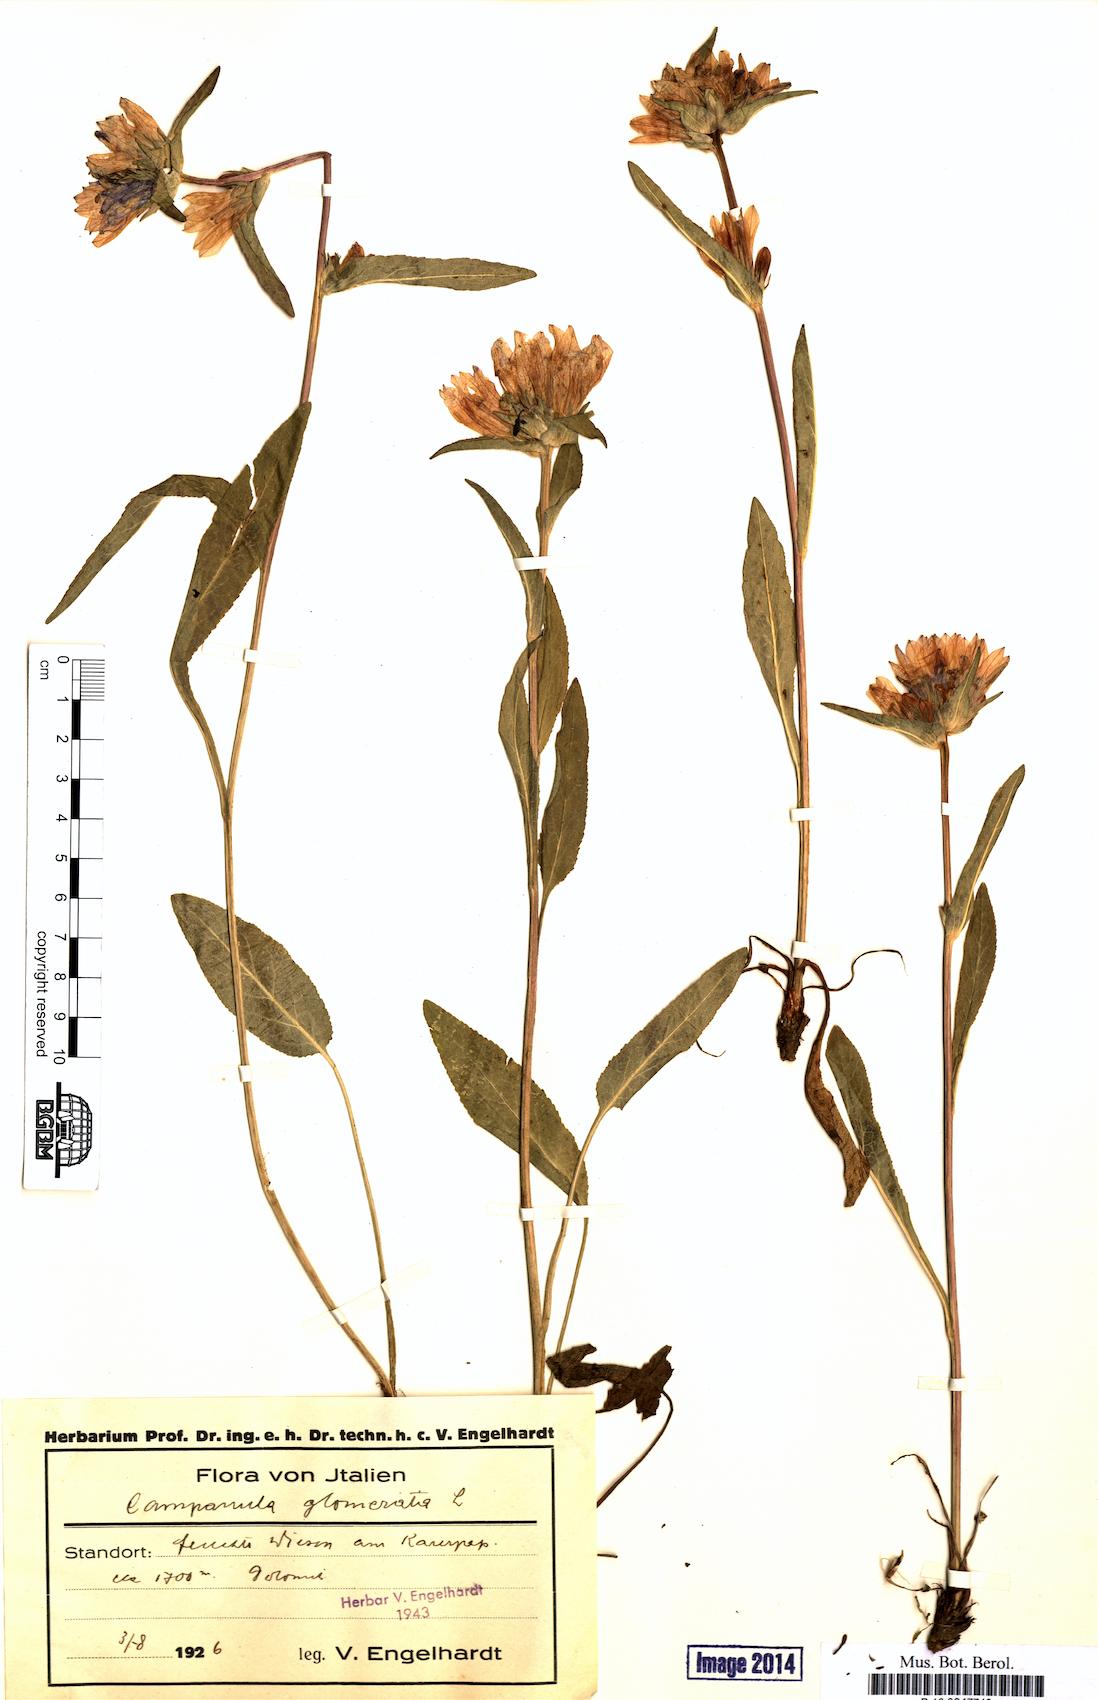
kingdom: Plantae
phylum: Tracheophyta
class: Magnoliopsida
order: Asterales
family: Campanulaceae
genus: Campanula
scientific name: Campanula glomerata
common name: Clustered bellflower
